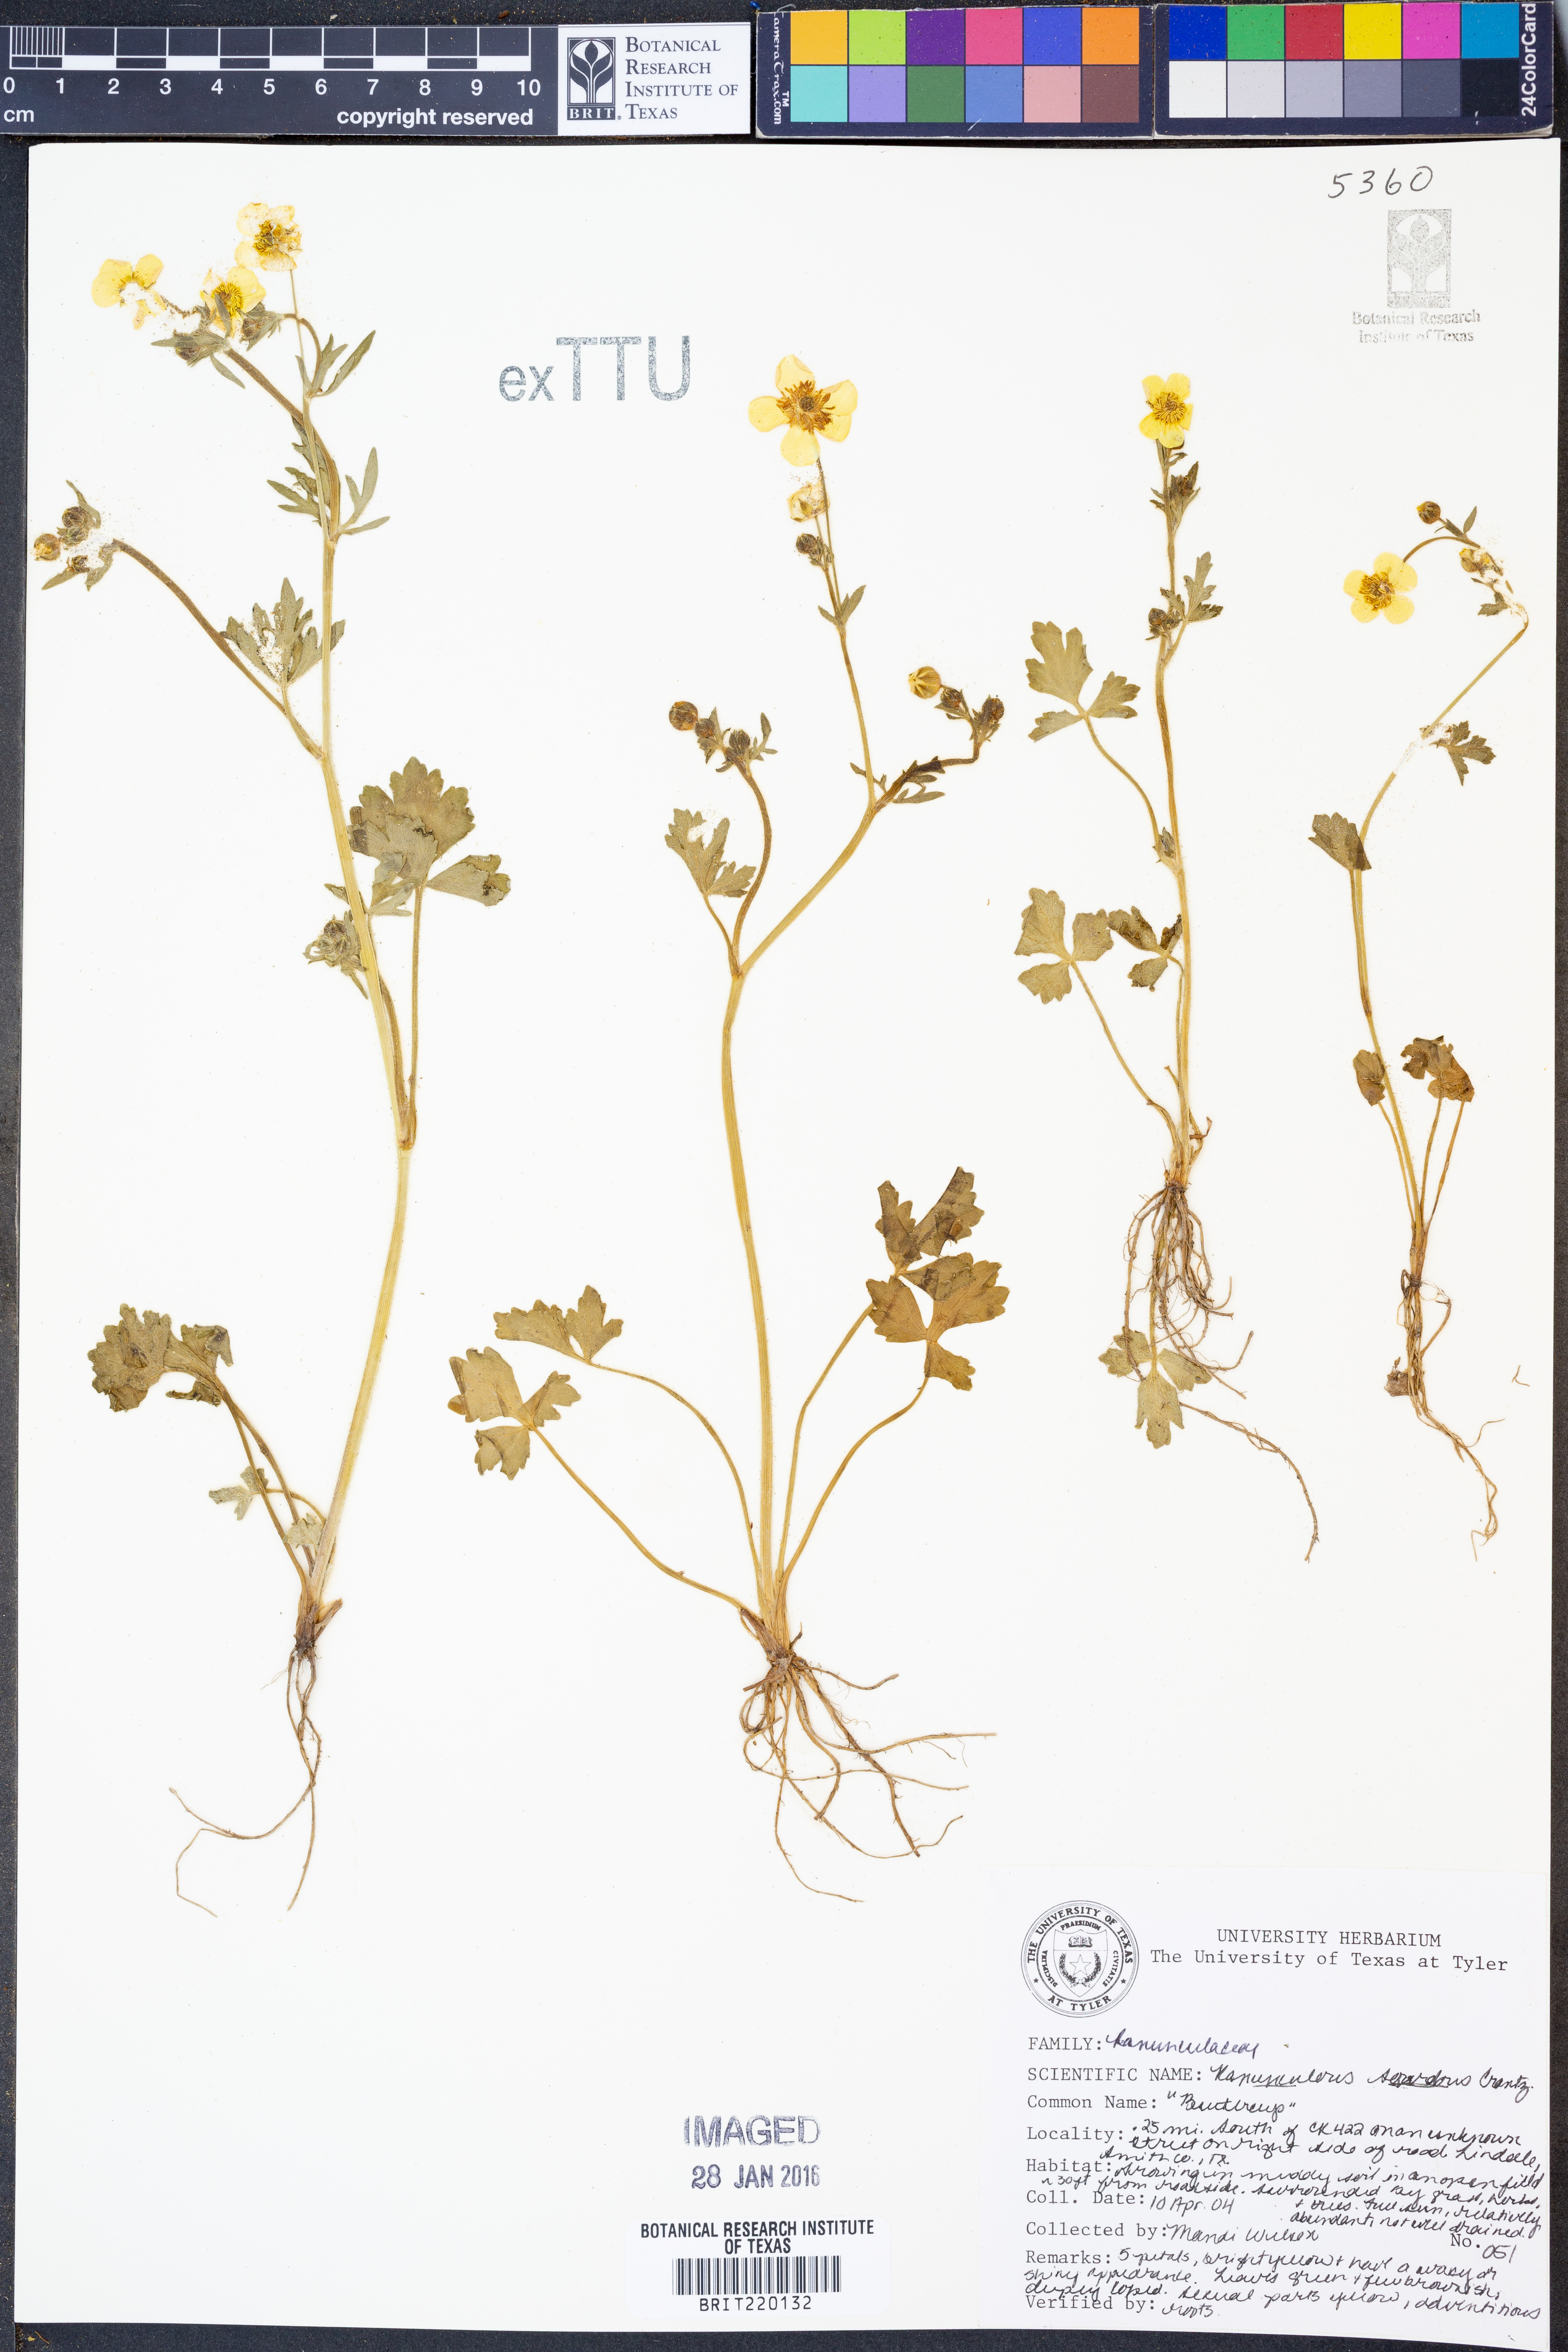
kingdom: Plantae
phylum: Tracheophyta
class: Magnoliopsida
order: Ranunculales
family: Ranunculaceae
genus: Ranunculus
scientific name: Ranunculus sardous
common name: Hairy buttercup
